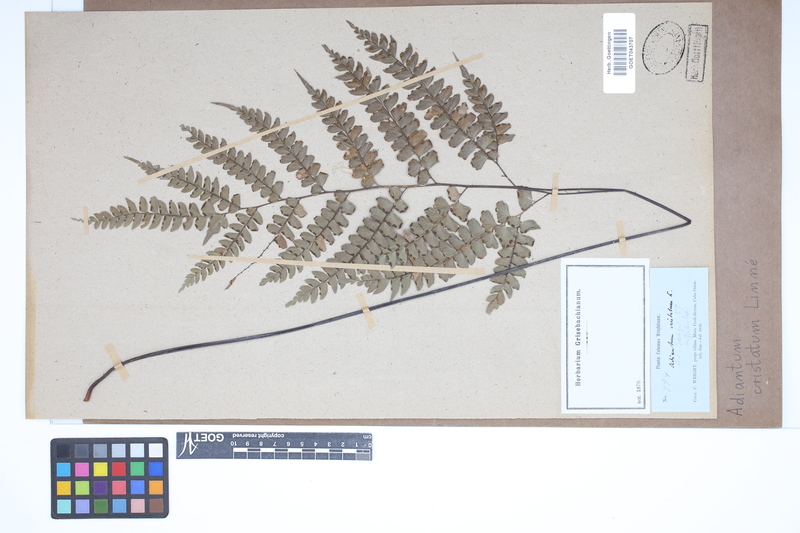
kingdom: Plantae
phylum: Tracheophyta
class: Polypodiopsida
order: Polypodiales
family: Pteridaceae
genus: Adiantum
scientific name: Adiantum pyramidale
